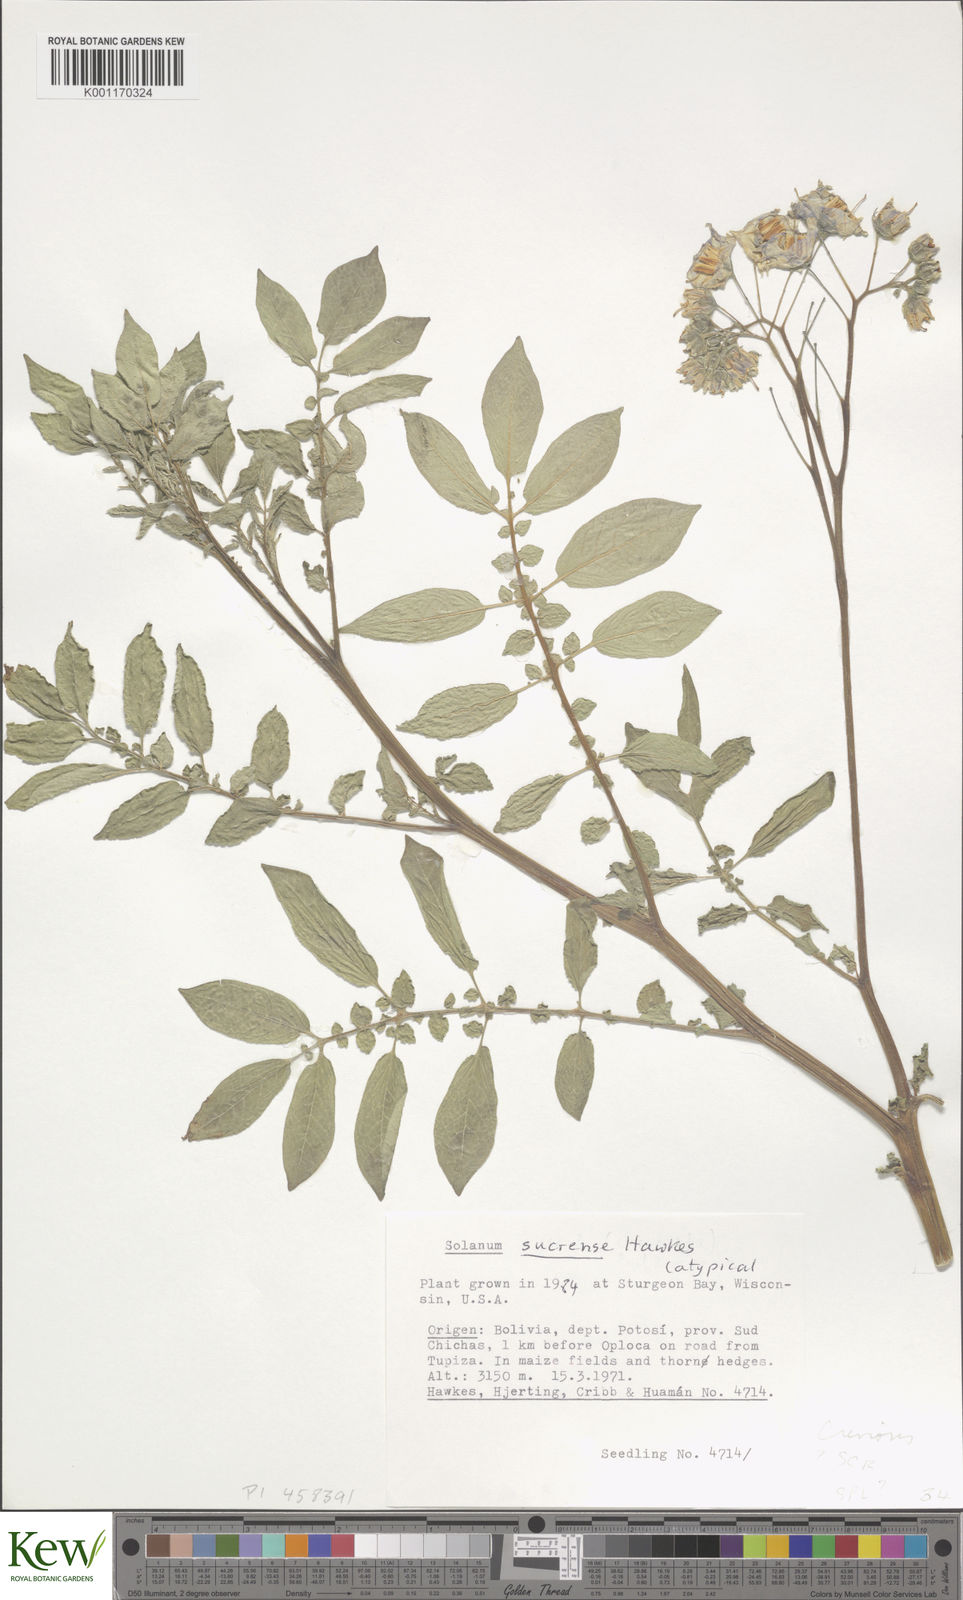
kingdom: Plantae
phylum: Tracheophyta
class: Magnoliopsida
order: Solanales
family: Solanaceae
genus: Solanum
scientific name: Solanum brevicaule
